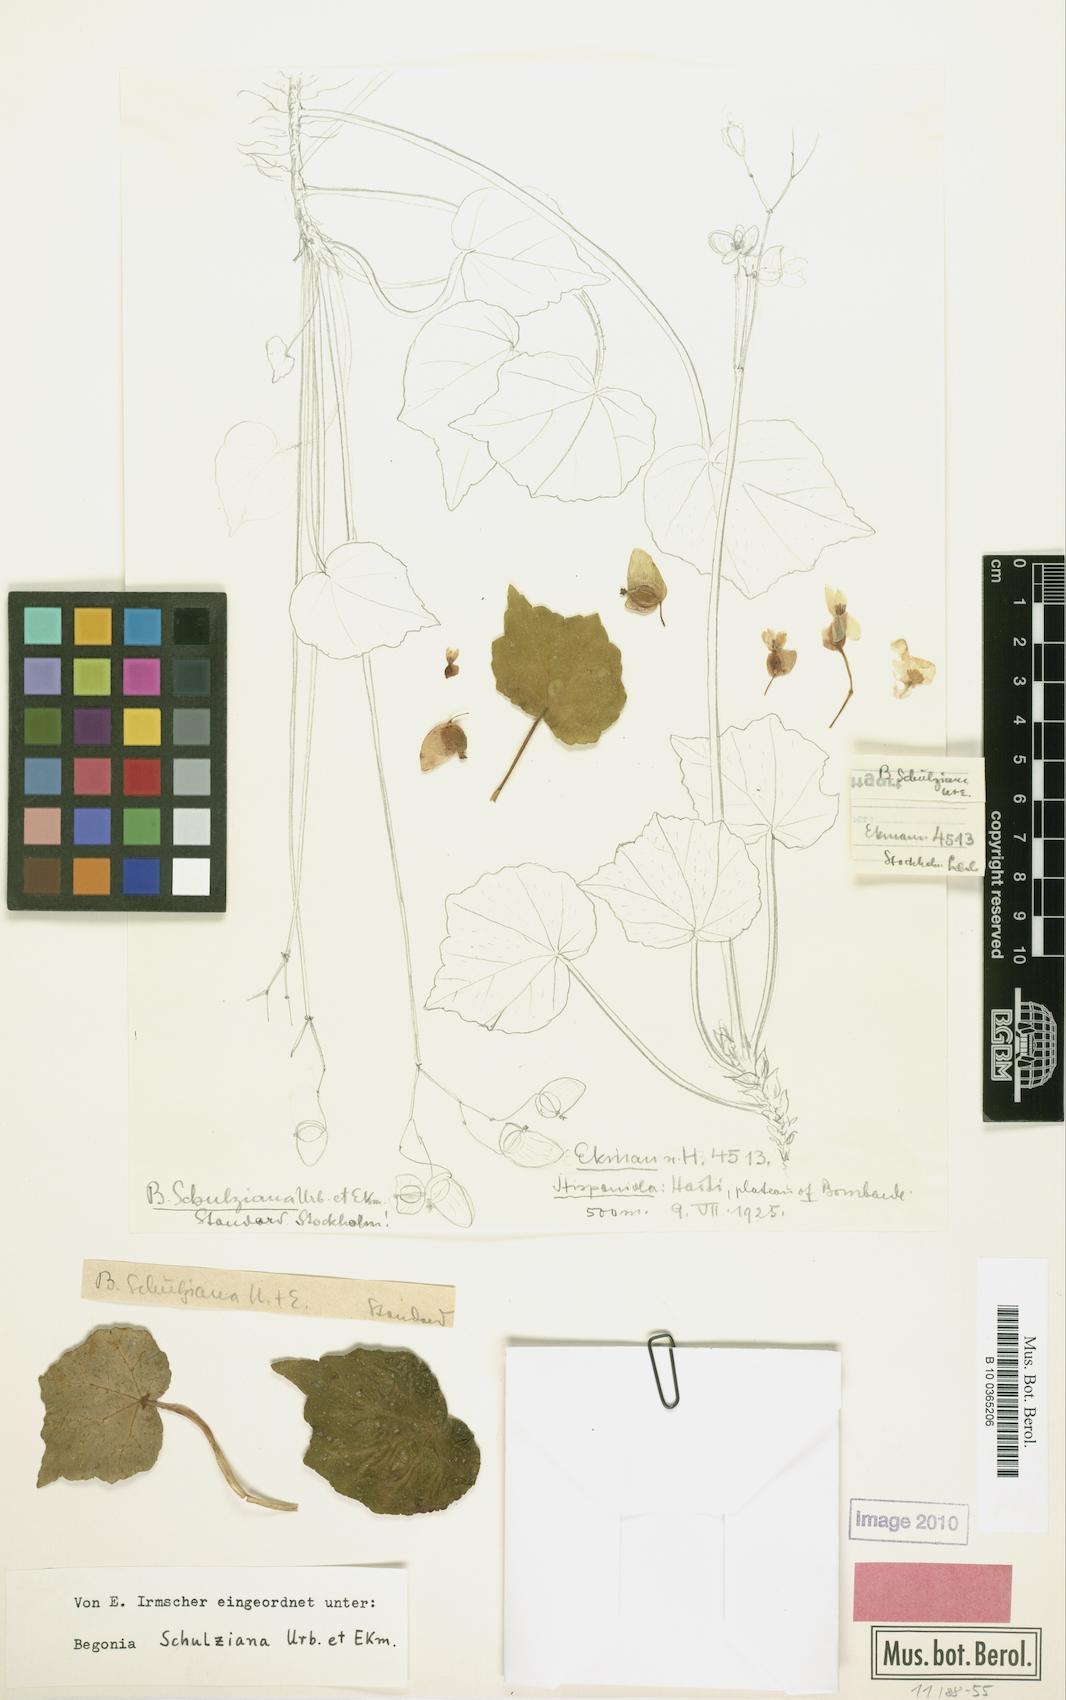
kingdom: Plantae
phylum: Tracheophyta
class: Magnoliopsida
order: Cucurbitales
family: Begoniaceae
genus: Begonia
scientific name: Begonia schulziana
